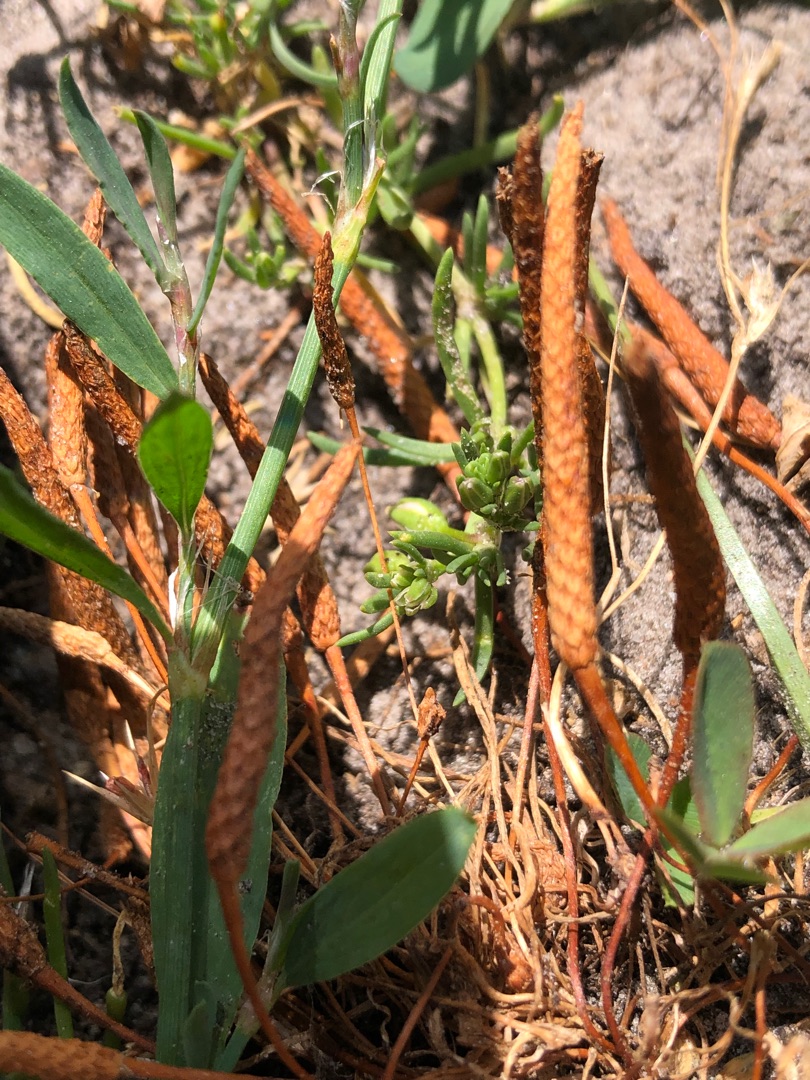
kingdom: Plantae
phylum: Tracheophyta
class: Magnoliopsida
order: Ranunculales
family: Ranunculaceae
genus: Myosurus
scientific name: Myosurus minimus
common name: Musehale
